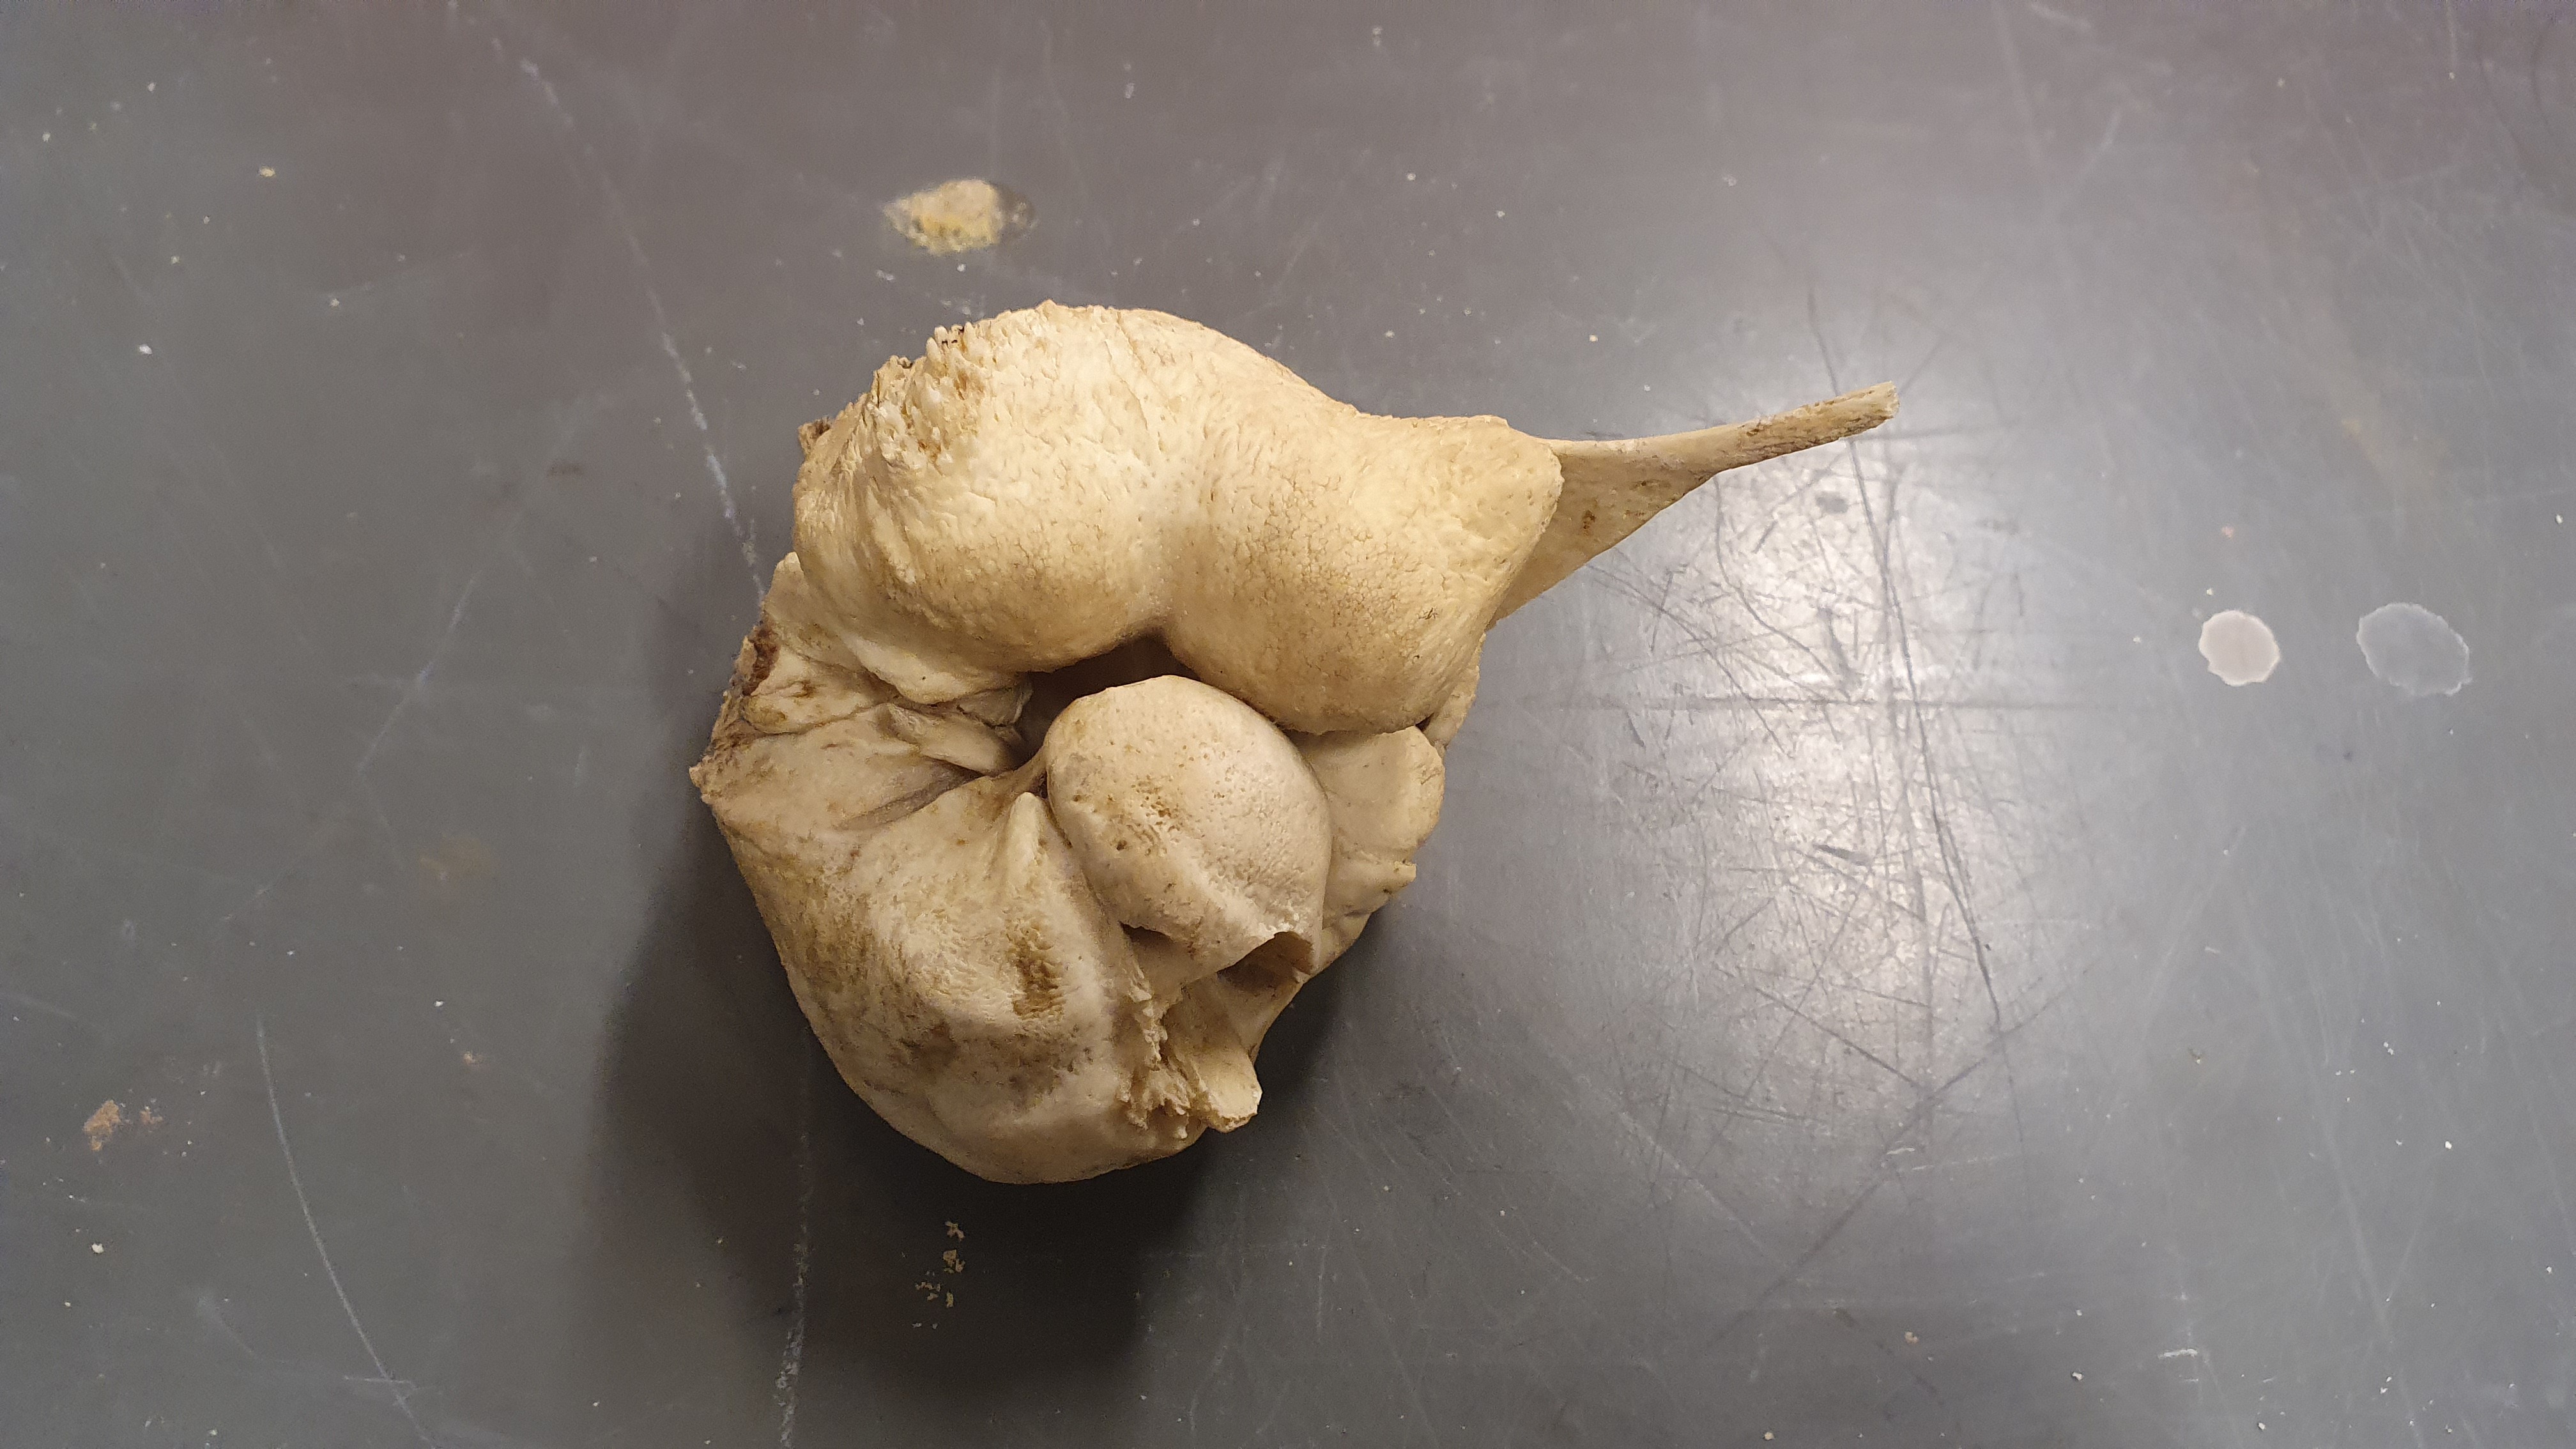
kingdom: Animalia
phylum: Chordata
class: Mammalia
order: Cetacea
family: Physeteridae
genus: Physeter
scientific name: Physeter macrocephalus
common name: Sperm whale
